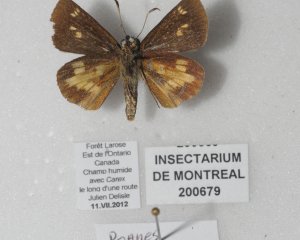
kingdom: Animalia
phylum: Arthropoda
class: Insecta
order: Lepidoptera
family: Hesperiidae
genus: Poanes
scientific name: Poanes massasoit
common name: Mulberry Wing
